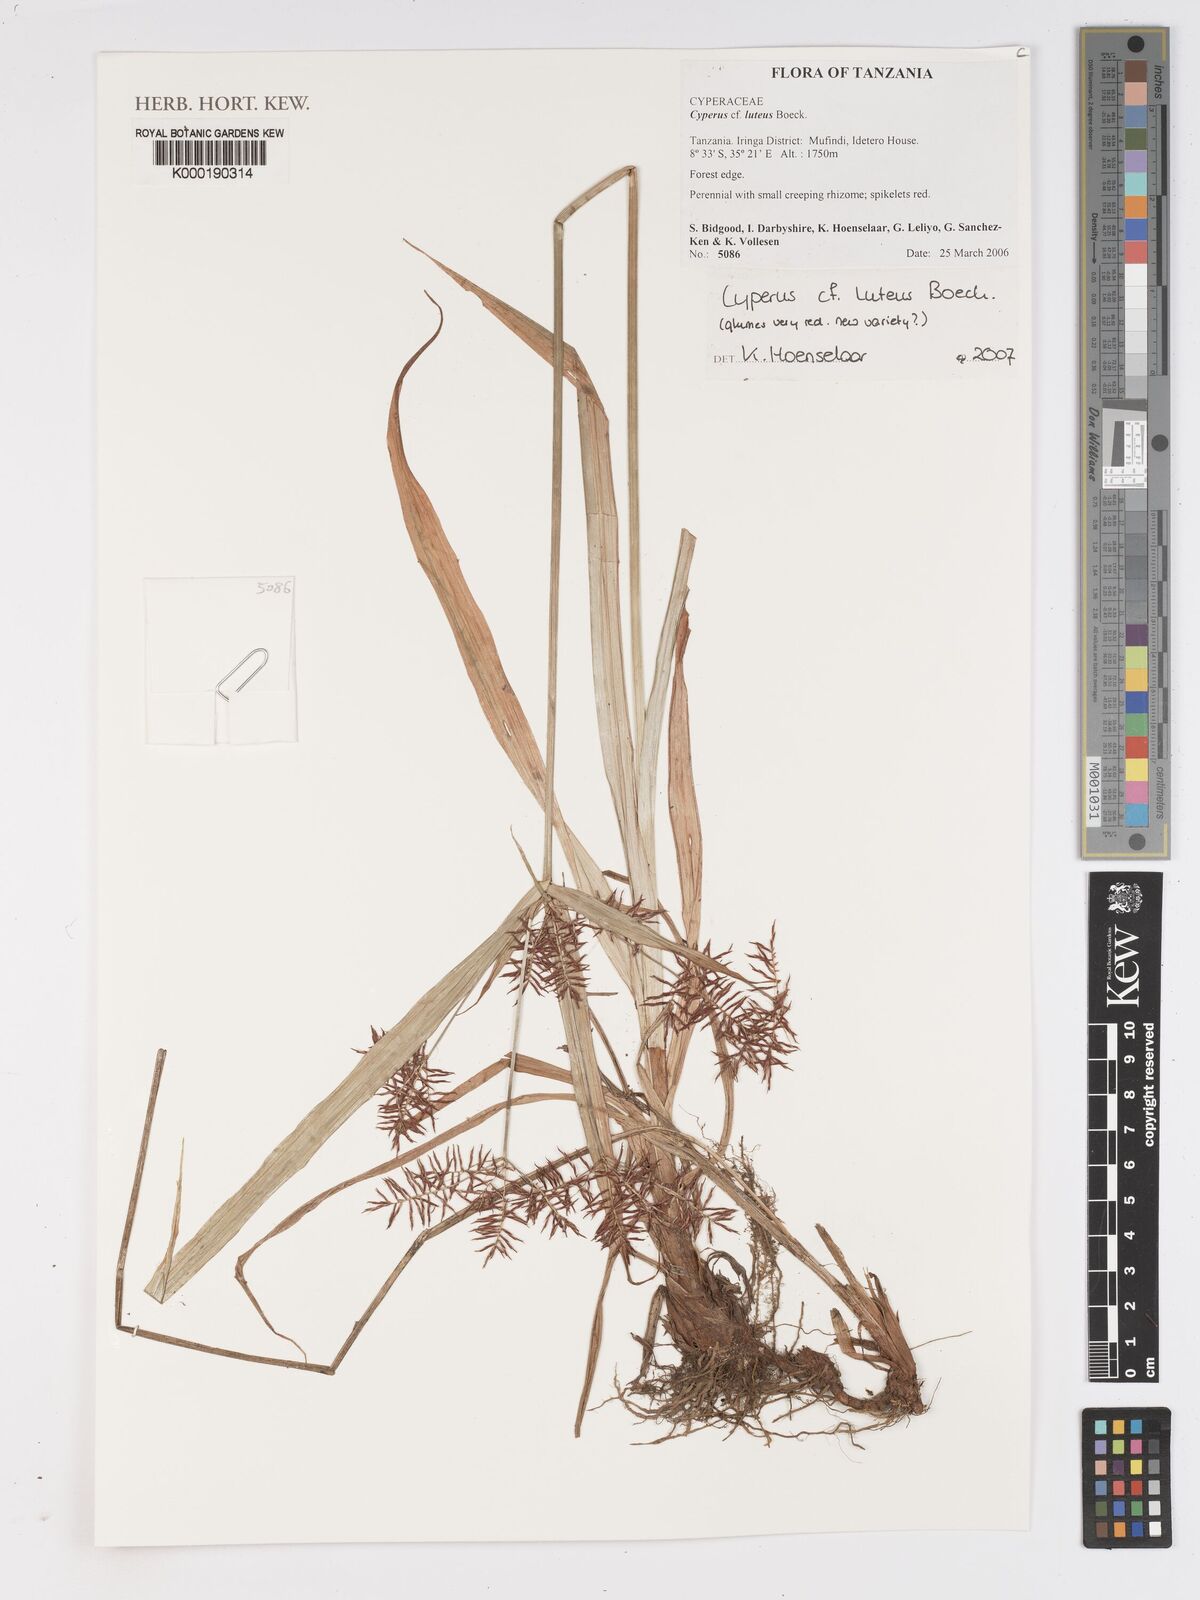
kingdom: Plantae
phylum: Tracheophyta
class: Liliopsida
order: Poales
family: Cyperaceae
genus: Cyperus
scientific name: Cyperus luteus
